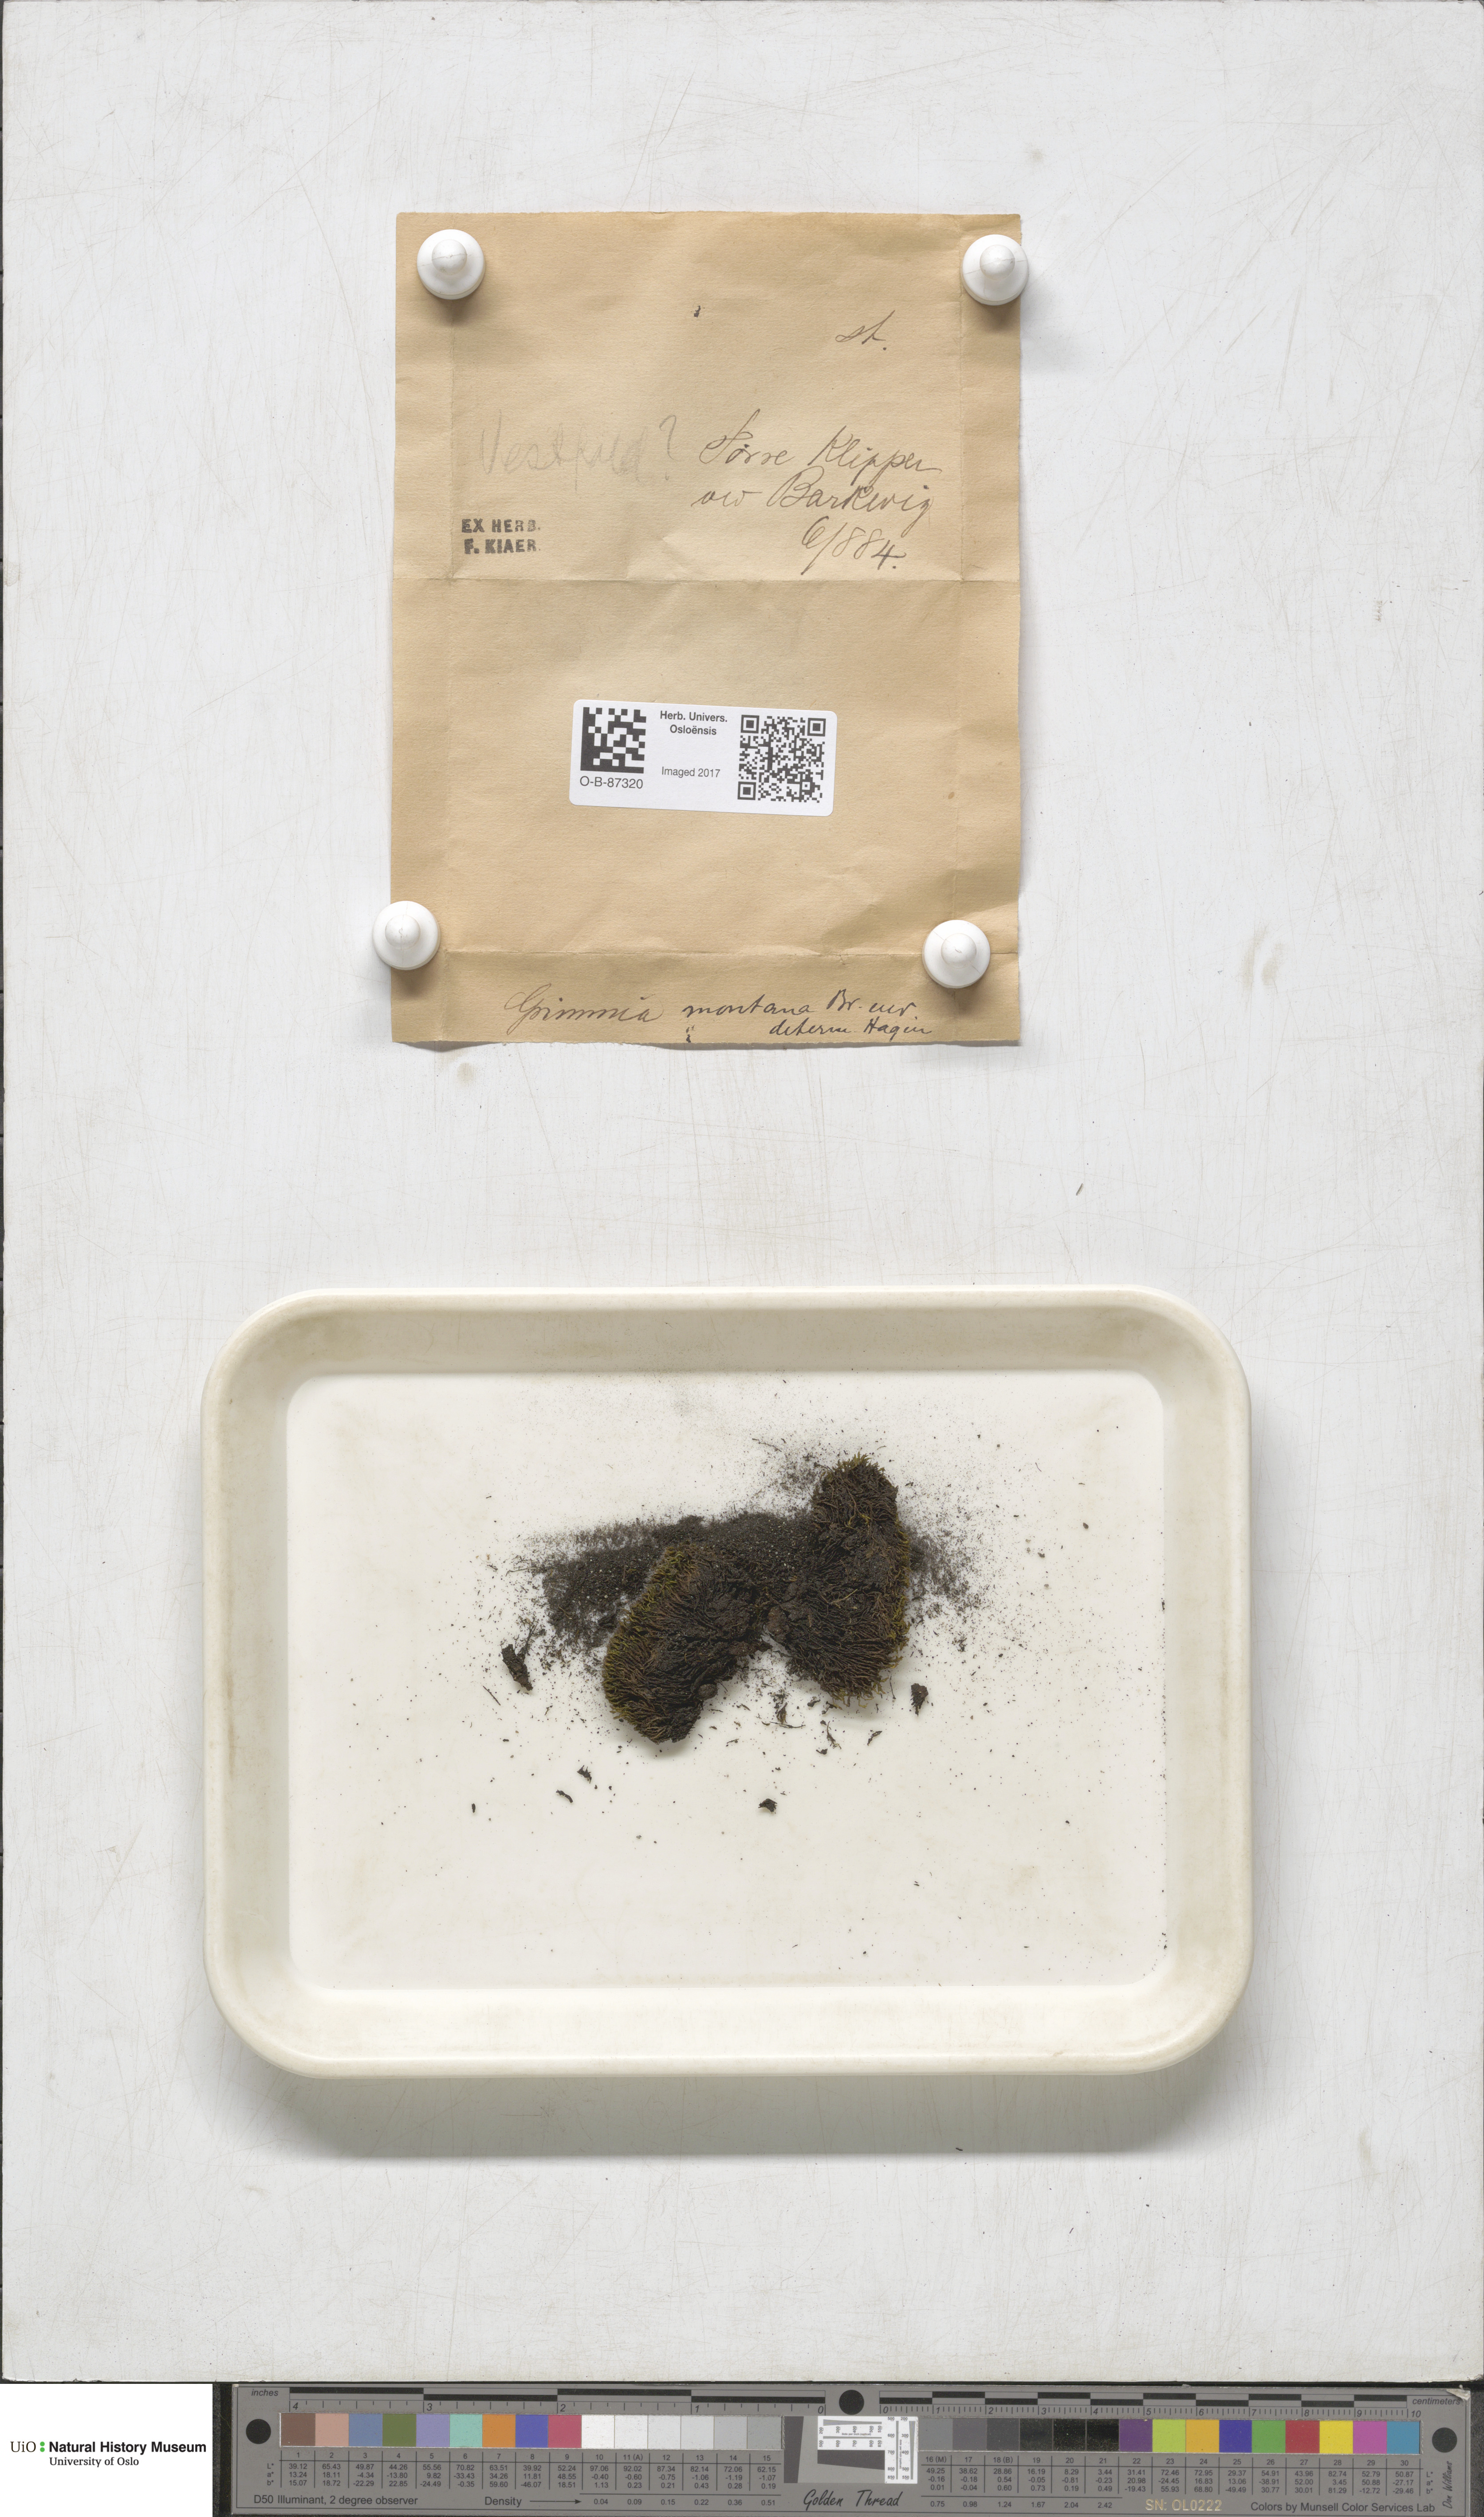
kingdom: Plantae
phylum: Bryophyta
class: Bryopsida
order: Grimmiales
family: Grimmiaceae
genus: Grimmia
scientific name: Grimmia montana
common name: Sun grimmia
